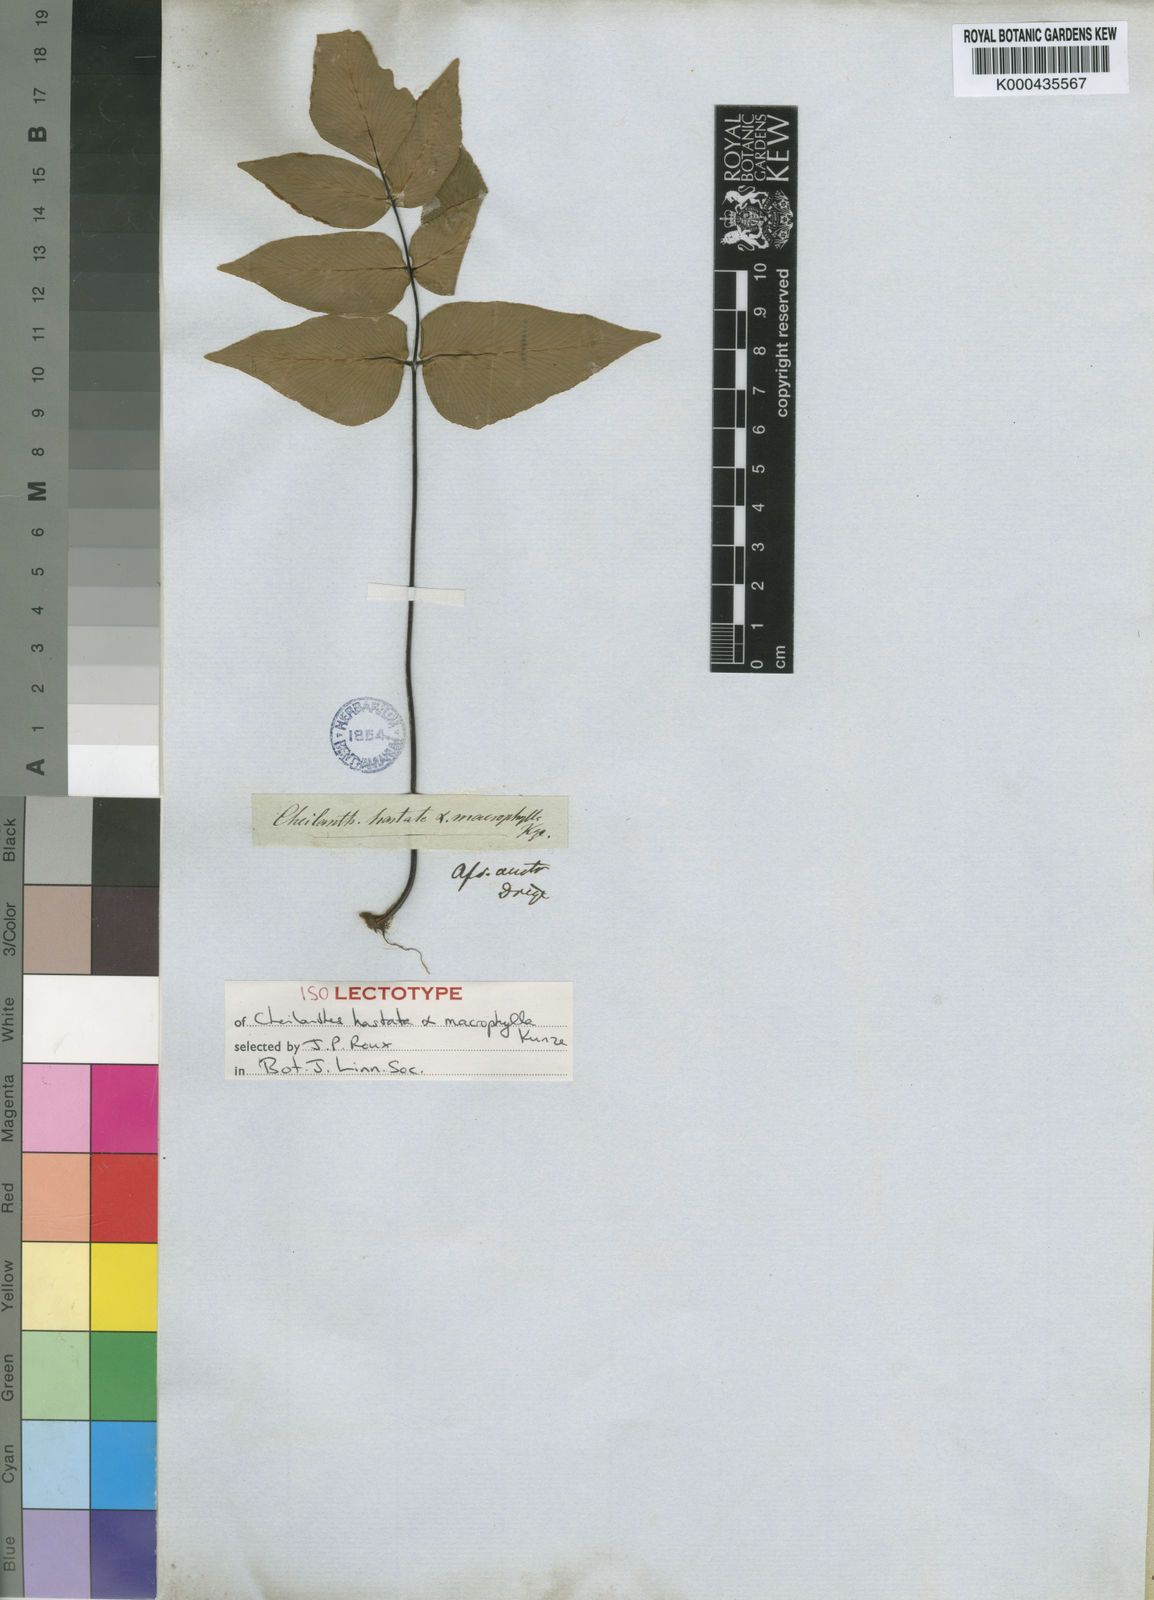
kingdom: Plantae
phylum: Tracheophyta
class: Polypodiopsida
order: Polypodiales
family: Pteridaceae
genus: Cheilanthes
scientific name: Cheilanthes viridis
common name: Green cliffbrake
